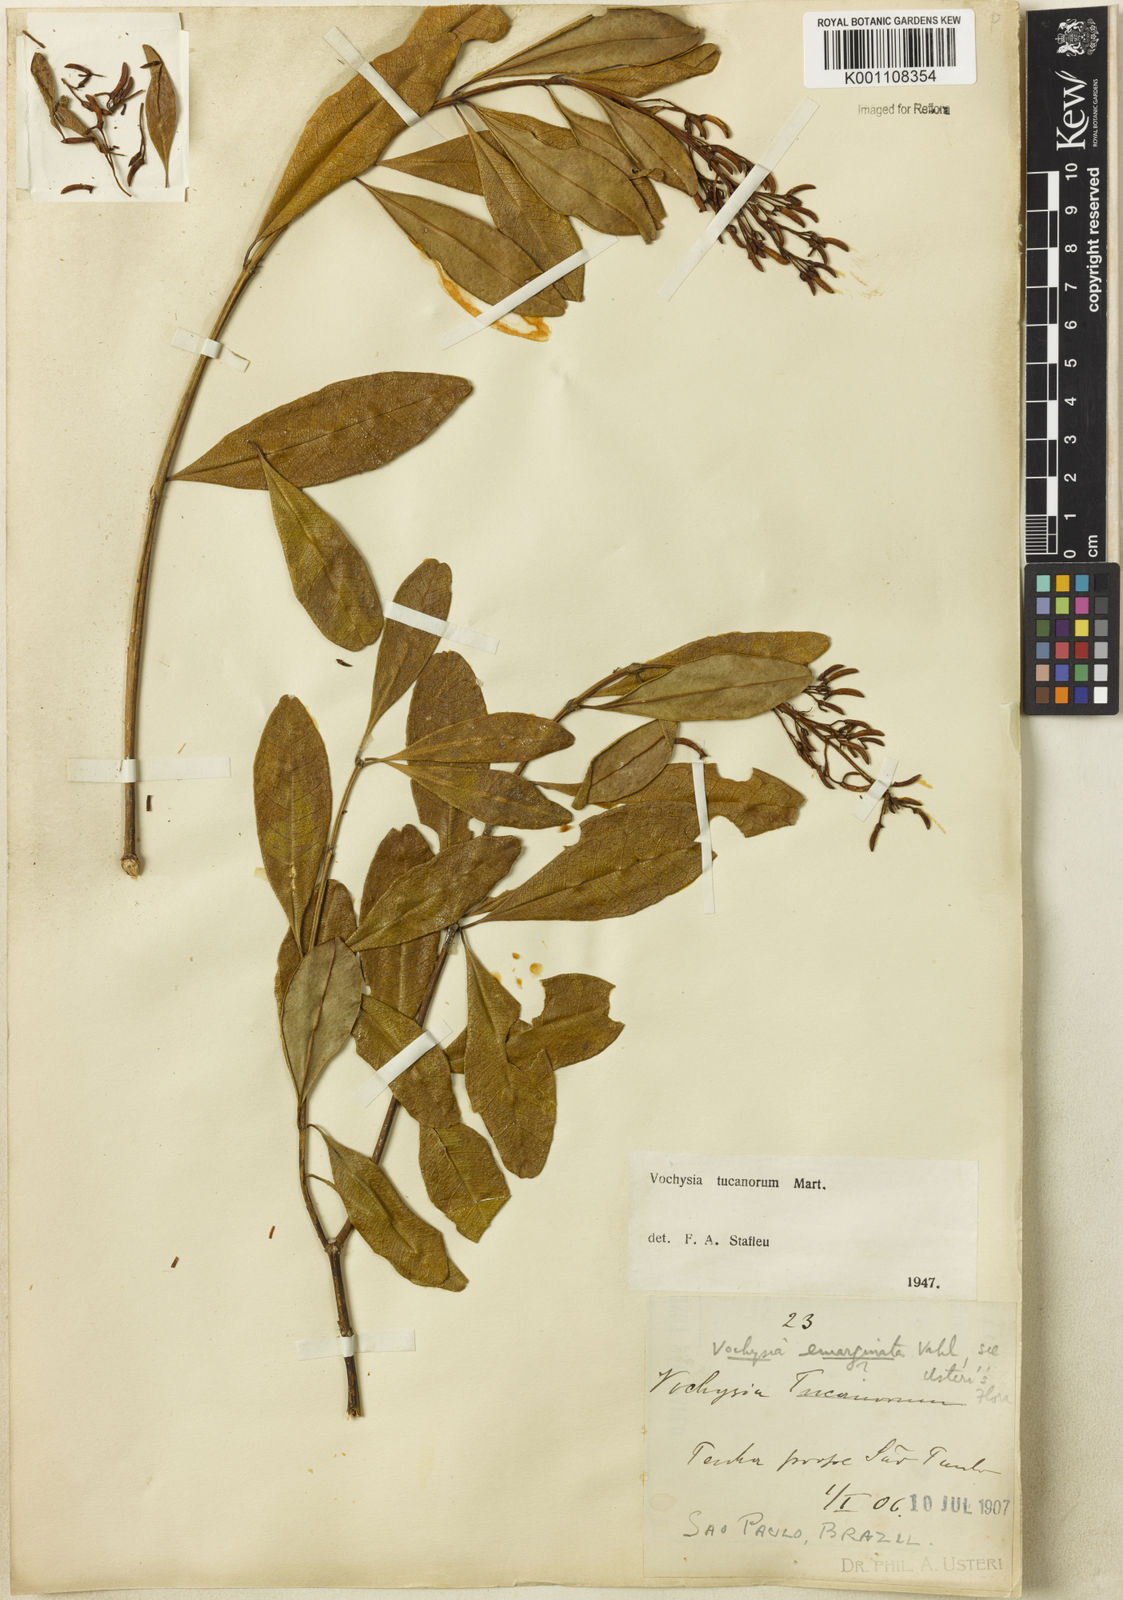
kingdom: Plantae
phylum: Tracheophyta
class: Magnoliopsida
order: Myrtales
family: Vochysiaceae
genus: Vochysia
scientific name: Vochysia tucanorum
